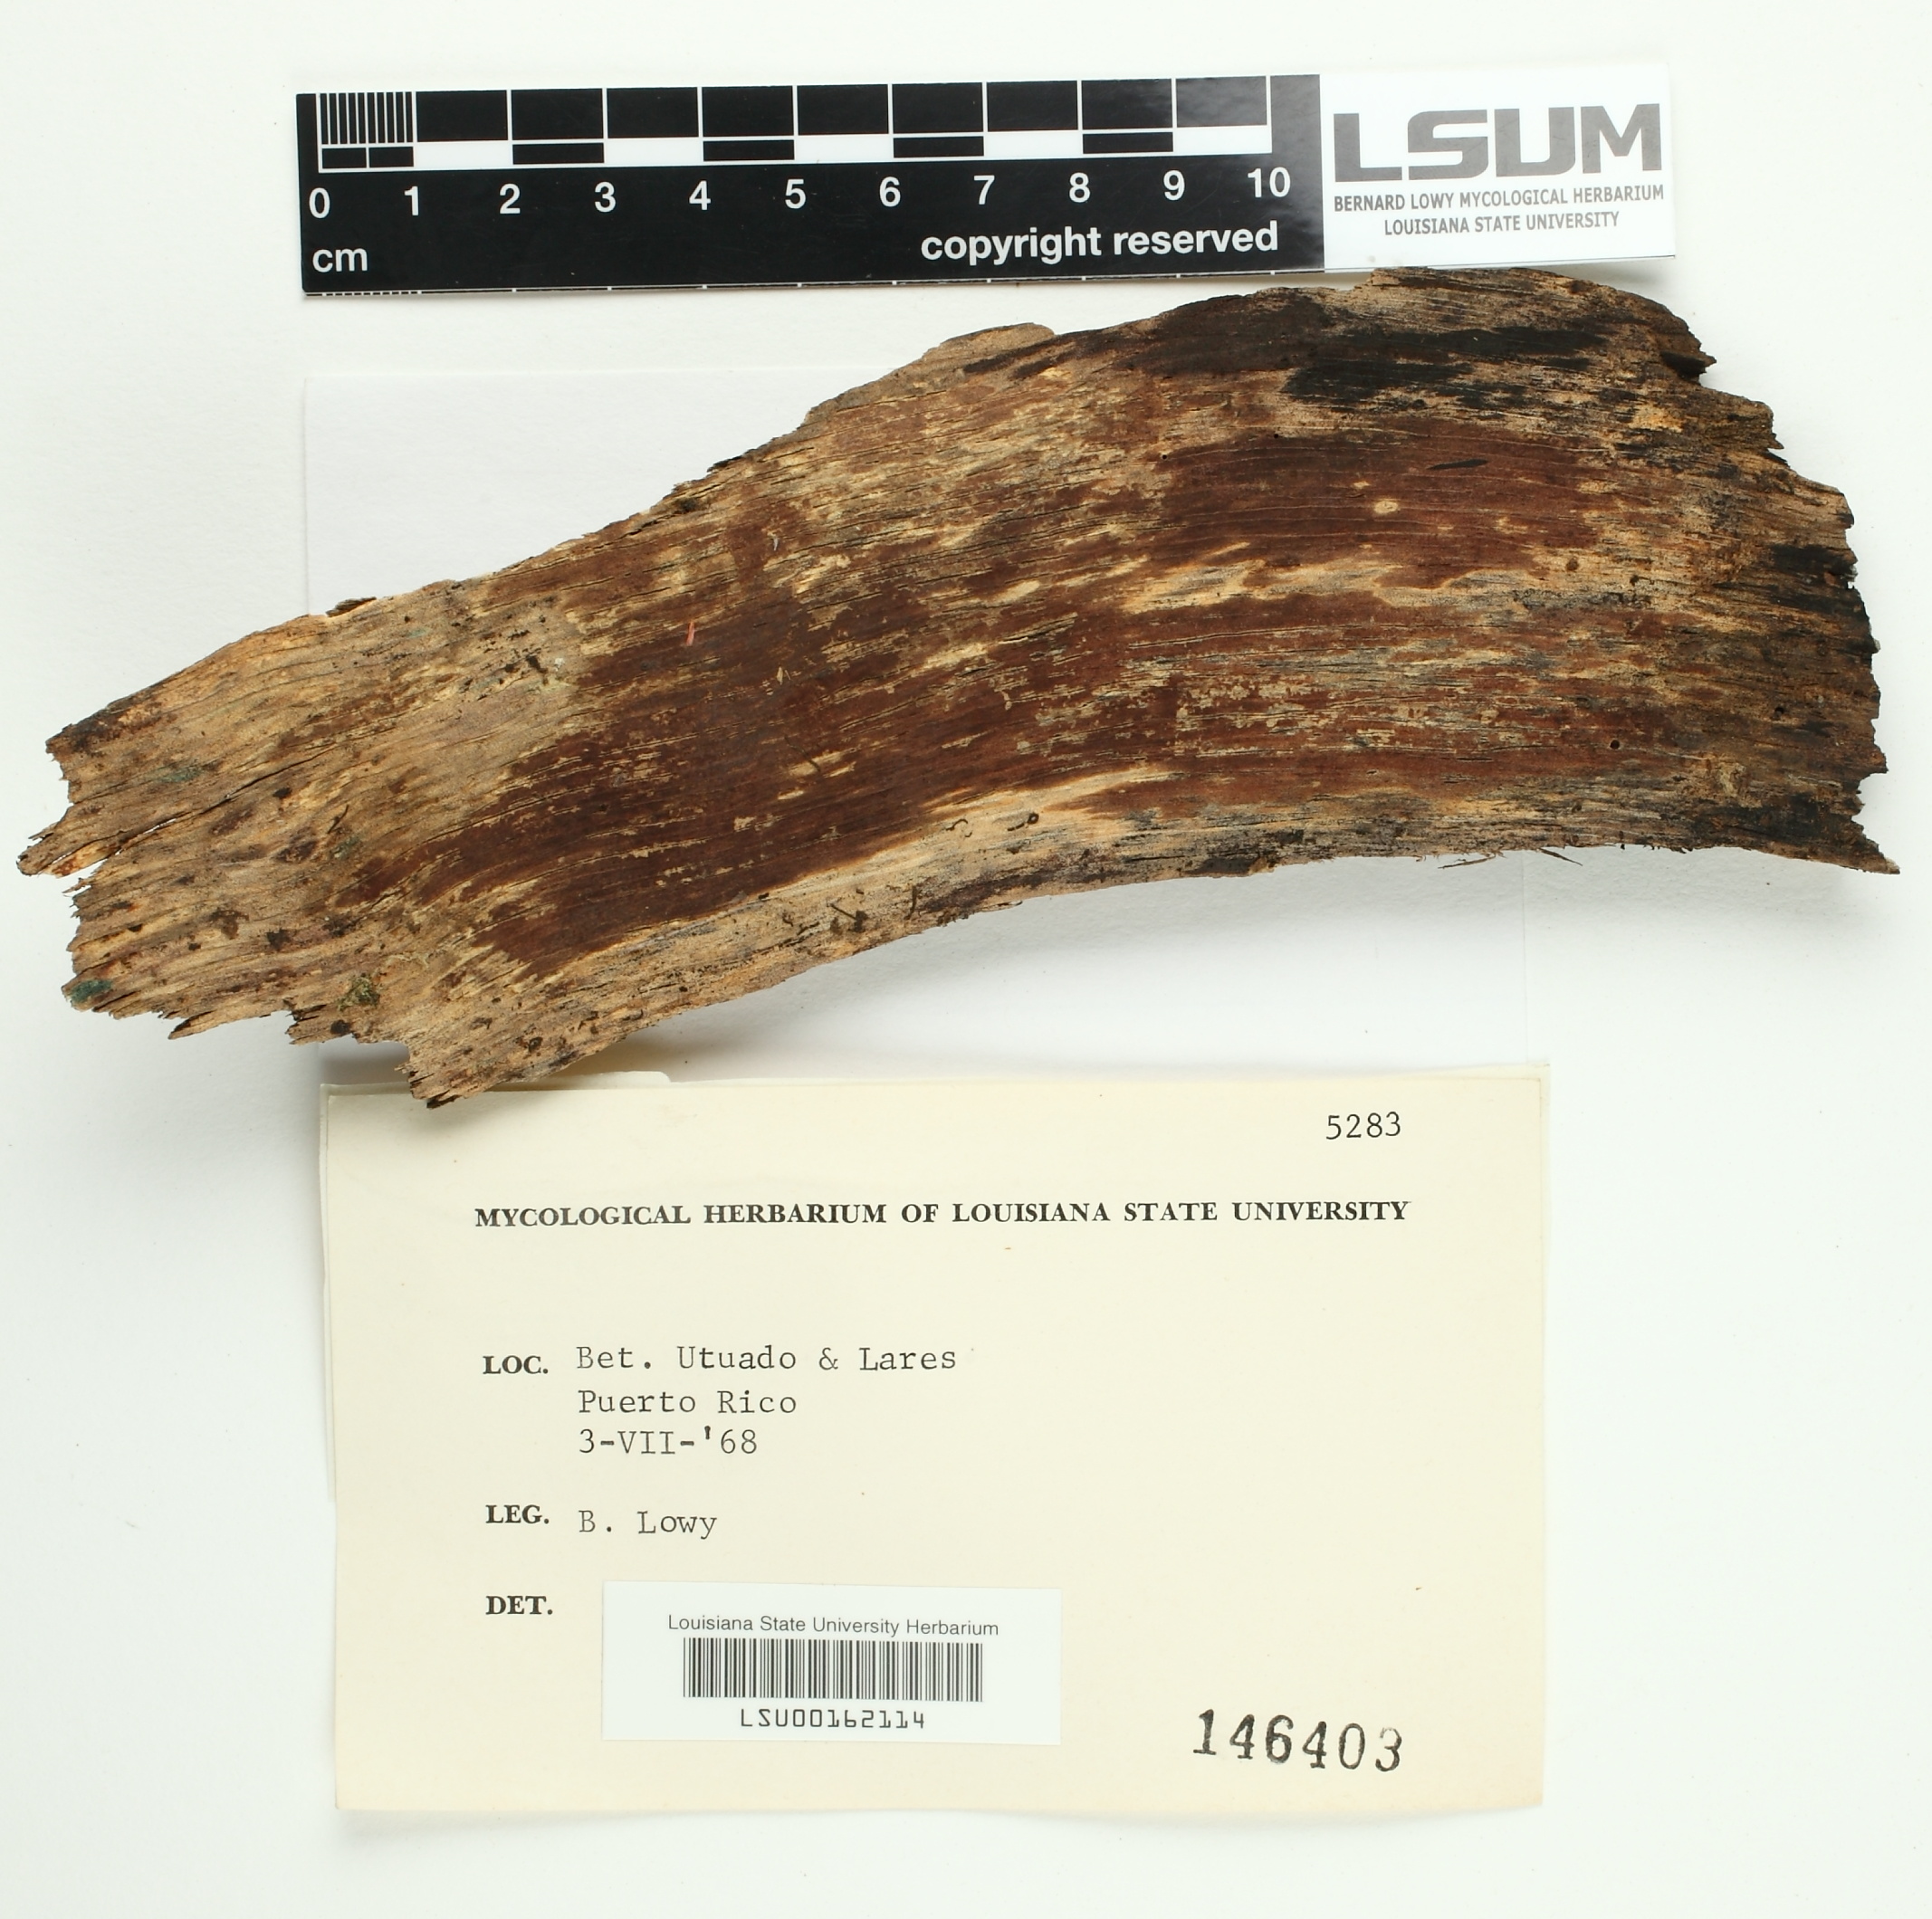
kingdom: Fungi
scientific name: Fungi
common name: Fungi
